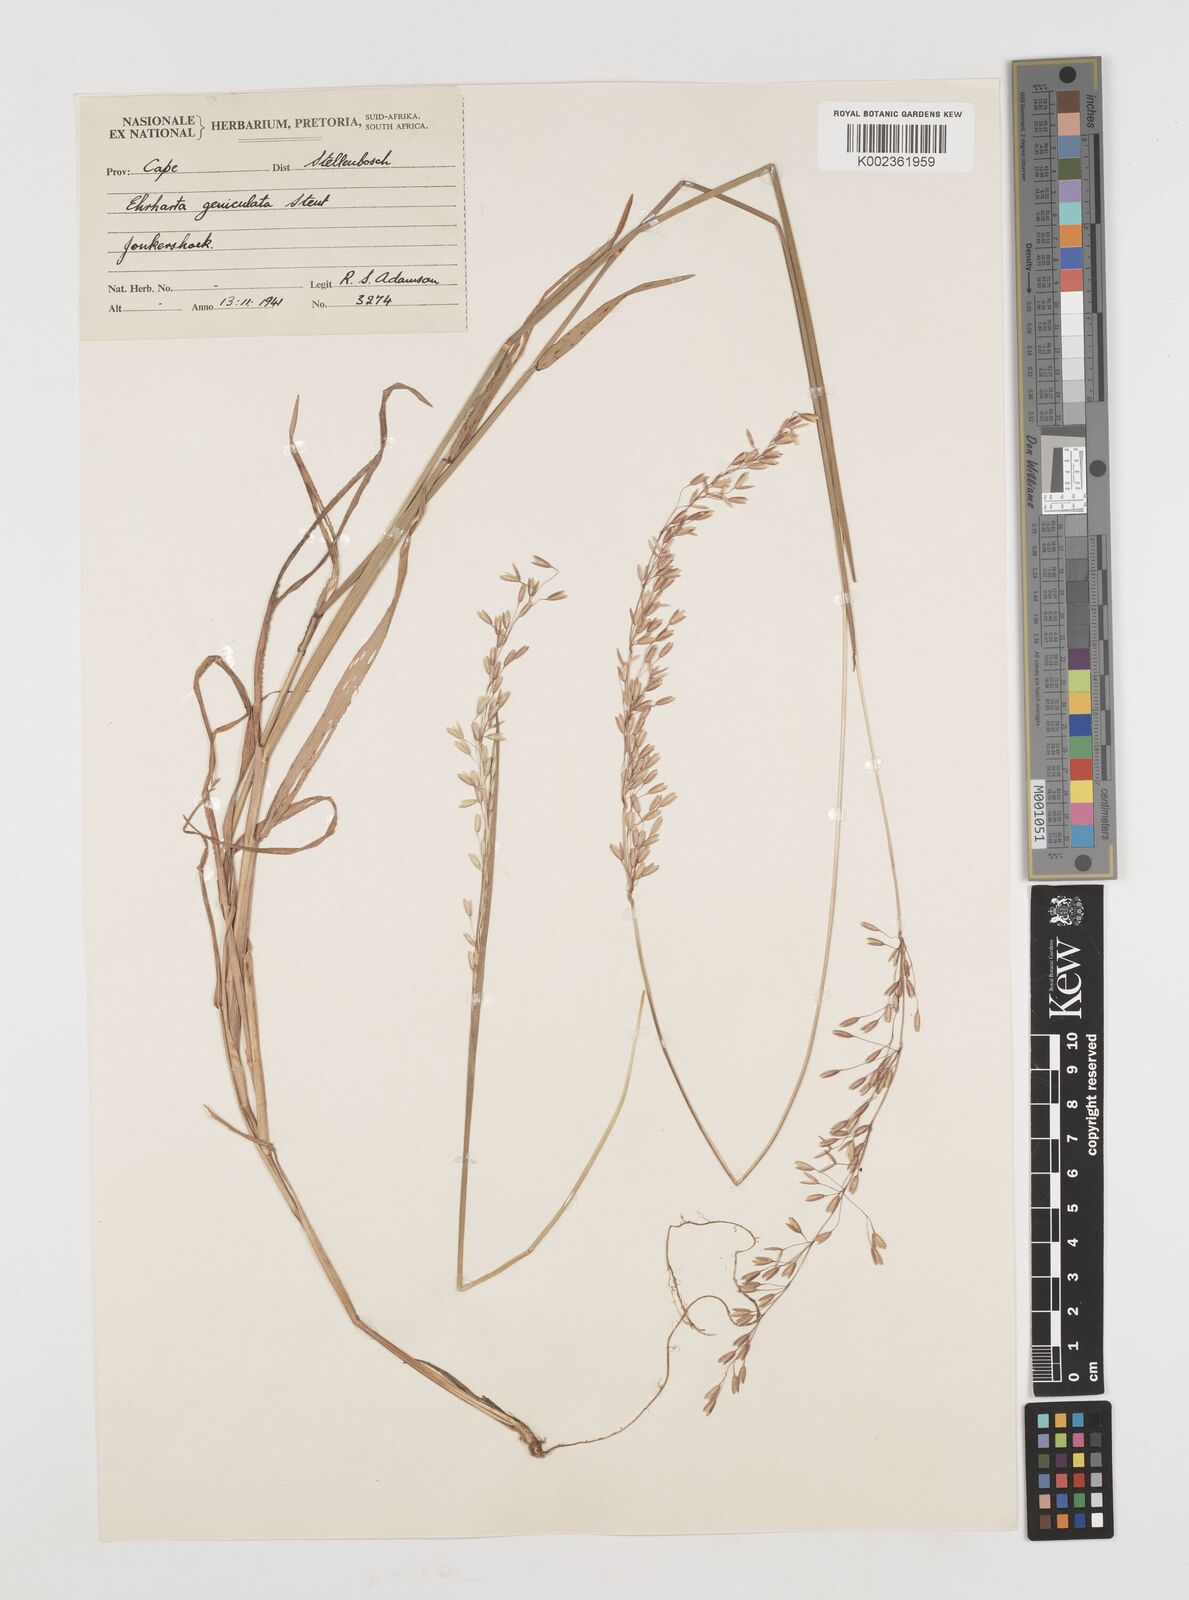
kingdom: Plantae
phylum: Tracheophyta
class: Liliopsida
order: Poales
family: Poaceae
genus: Ehrharta
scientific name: Ehrharta calycina
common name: Perennial veldtgrass
